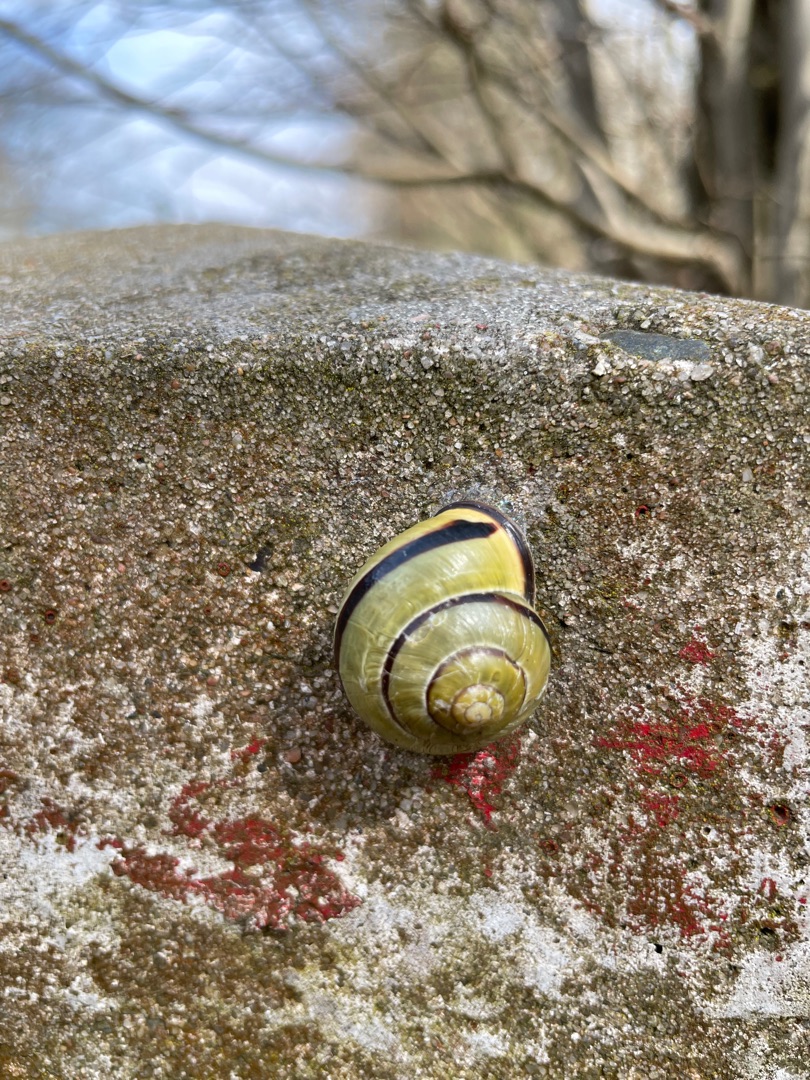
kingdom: Animalia
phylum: Mollusca
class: Gastropoda
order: Stylommatophora
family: Helicidae
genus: Cepaea
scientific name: Cepaea nemoralis
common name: Lundsnegl
